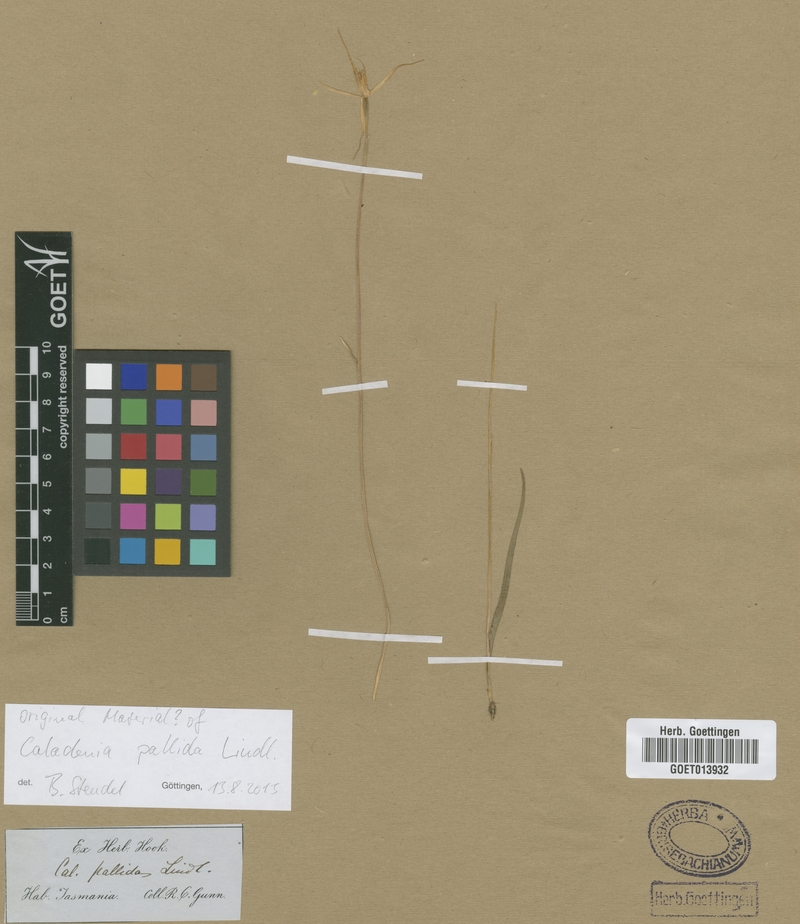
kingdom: Plantae
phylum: Tracheophyta
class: Liliopsida
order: Asparagales
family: Orchidaceae
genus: Caladenia
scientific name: Caladenia pallida
